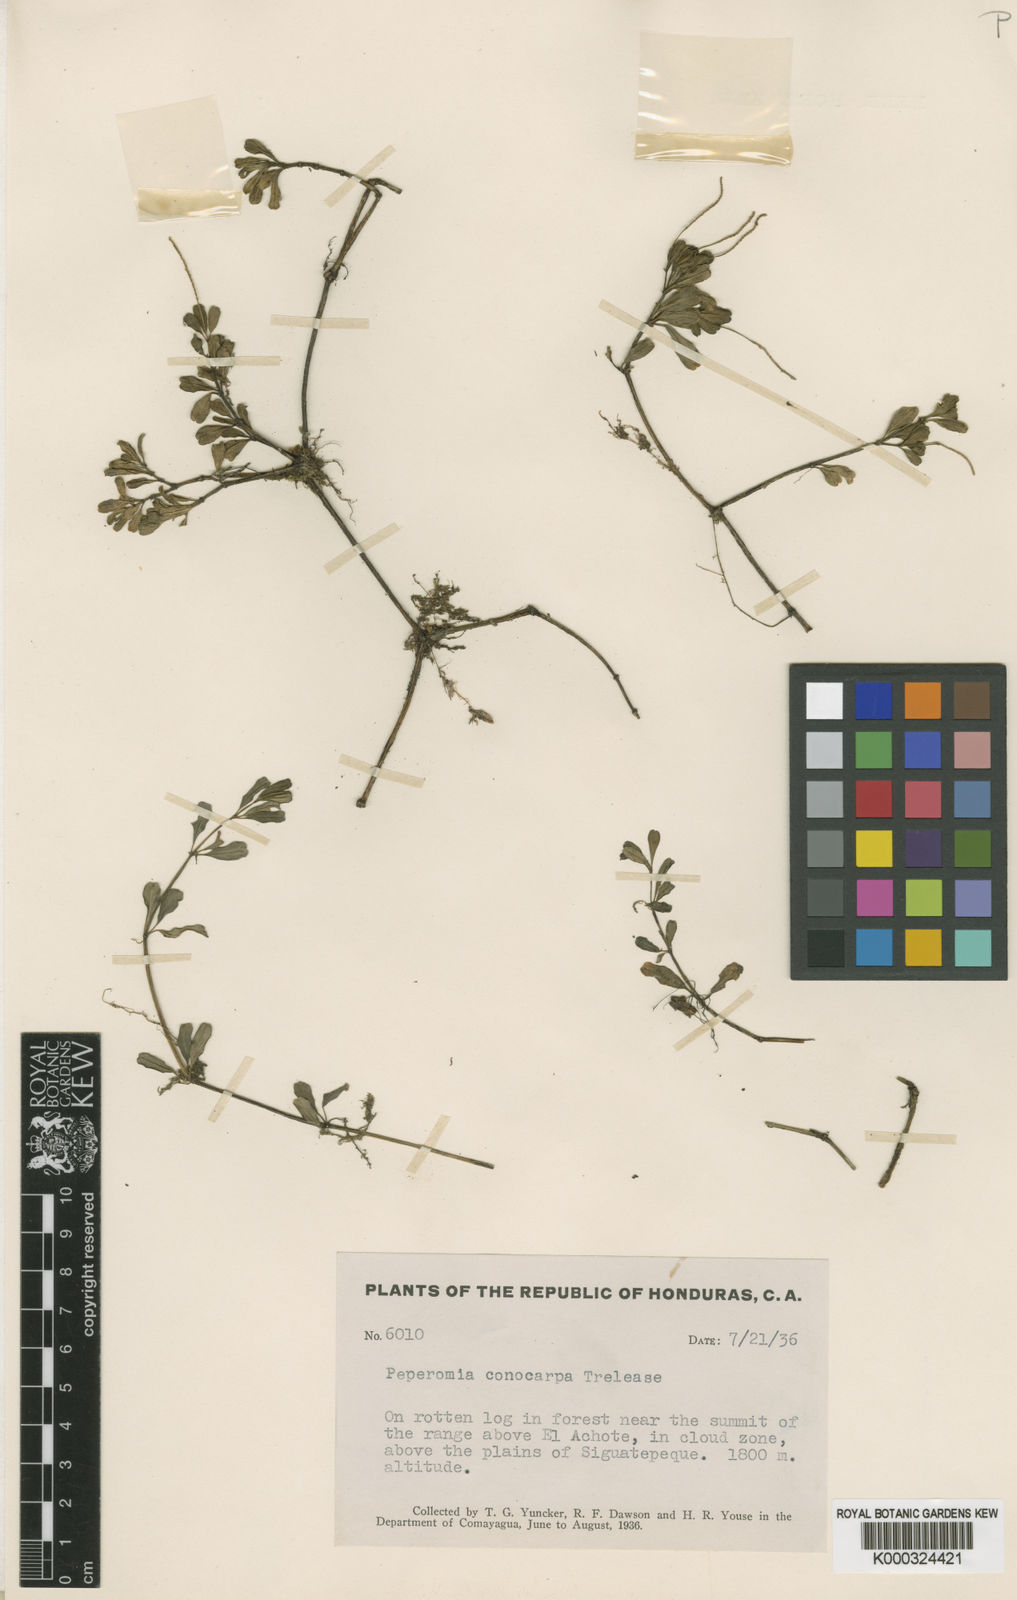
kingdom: Plantae
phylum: Tracheophyta
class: Magnoliopsida
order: Piperales
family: Piperaceae
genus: Peperomia
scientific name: Peperomia quadrifolia
